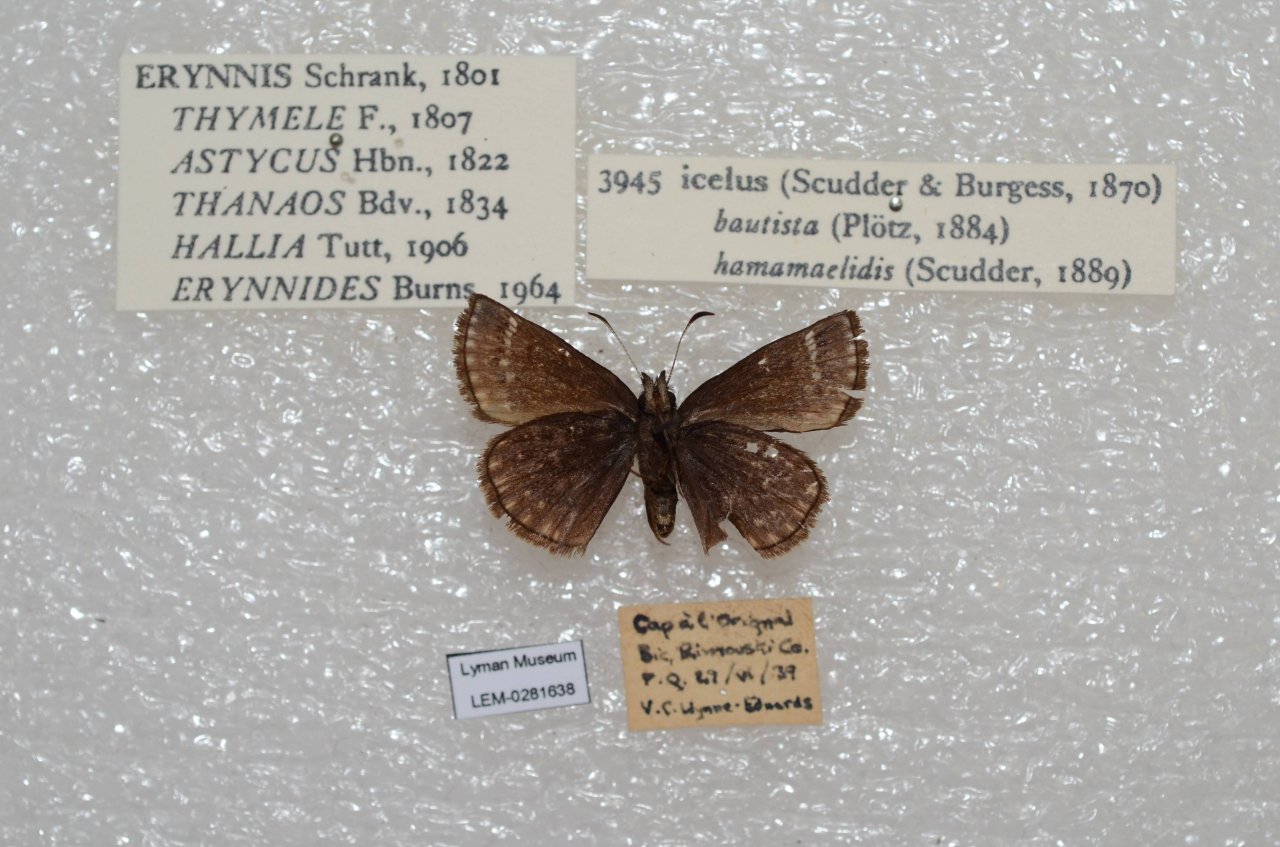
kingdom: Animalia
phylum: Arthropoda
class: Insecta
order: Lepidoptera
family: Hesperiidae
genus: Erynnis
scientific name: Erynnis icelus
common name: Dreamy Duskywing
